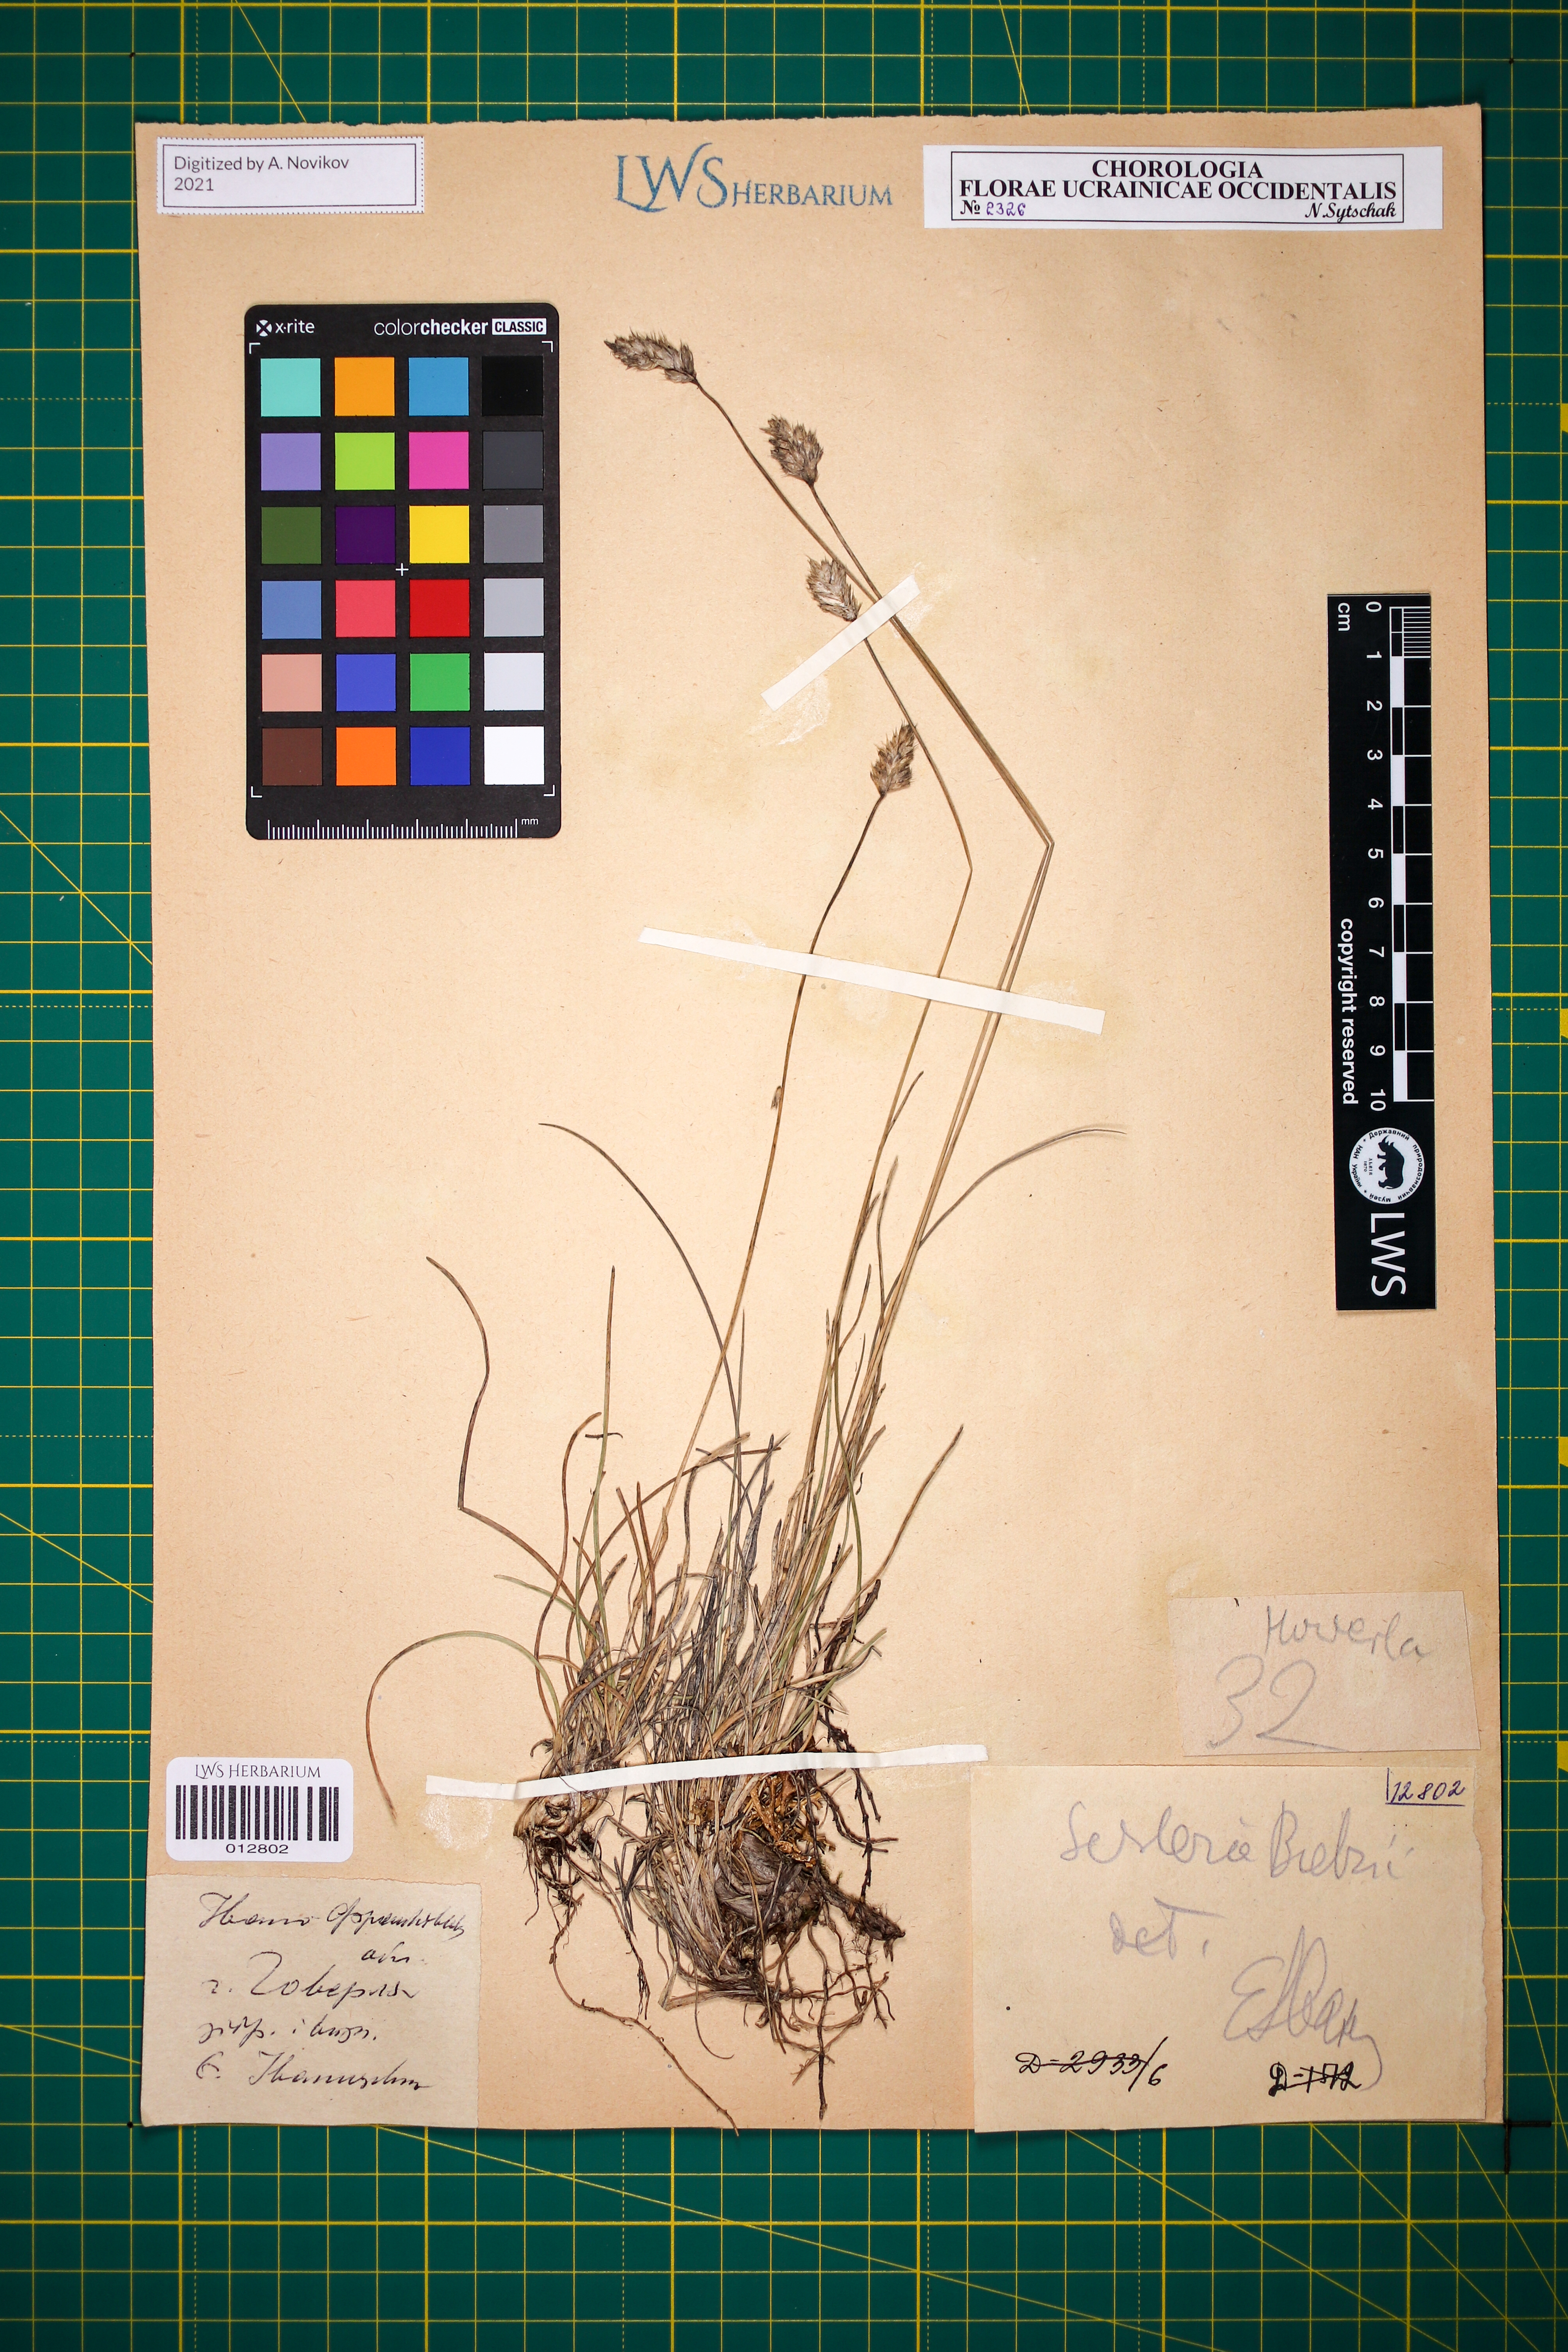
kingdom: Plantae
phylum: Tracheophyta
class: Liliopsida
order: Poales
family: Poaceae
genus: Sesleria
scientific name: Sesleria bielzii
